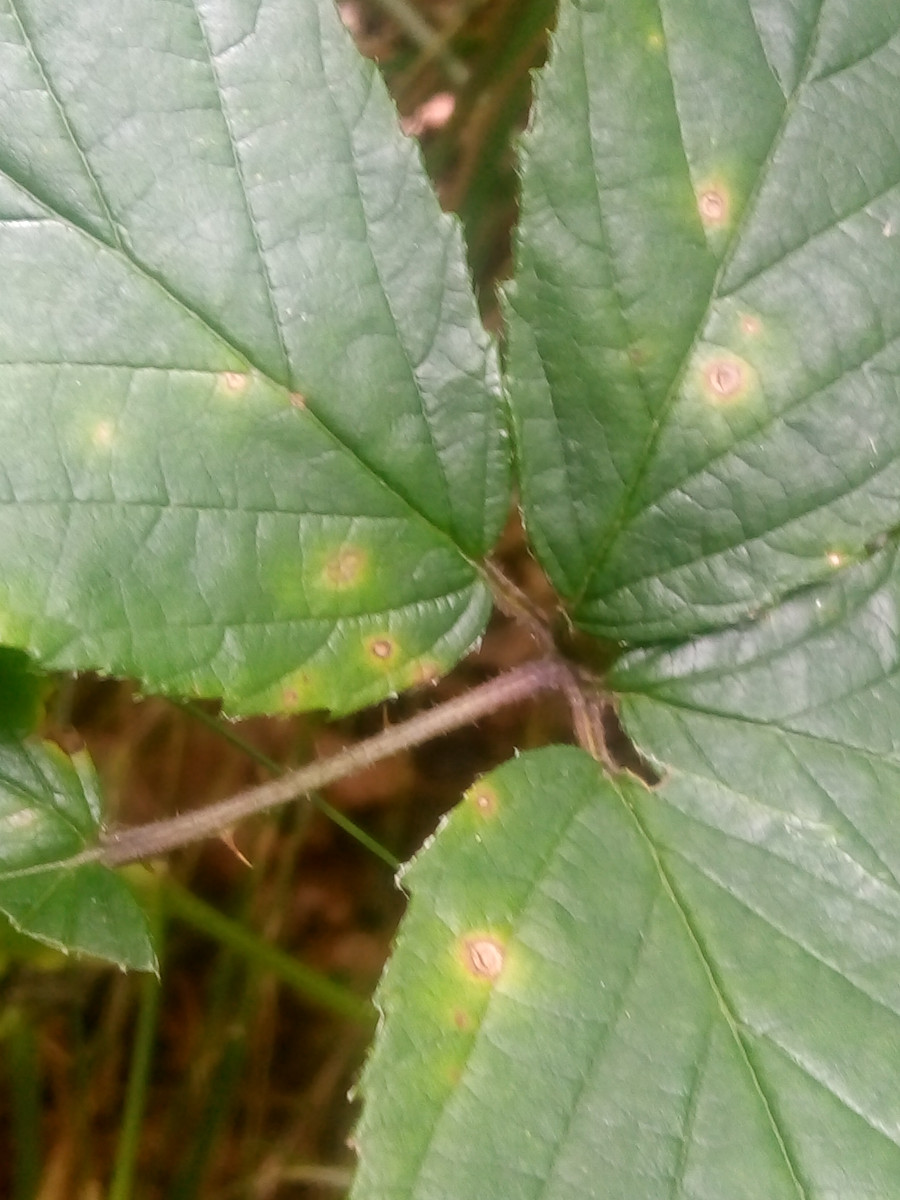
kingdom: Fungi
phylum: Basidiomycota
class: Pucciniomycetes
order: Pucciniales
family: Phragmidiaceae
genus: Phragmidium
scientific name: Phragmidium violaceum
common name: violet flercellerust
